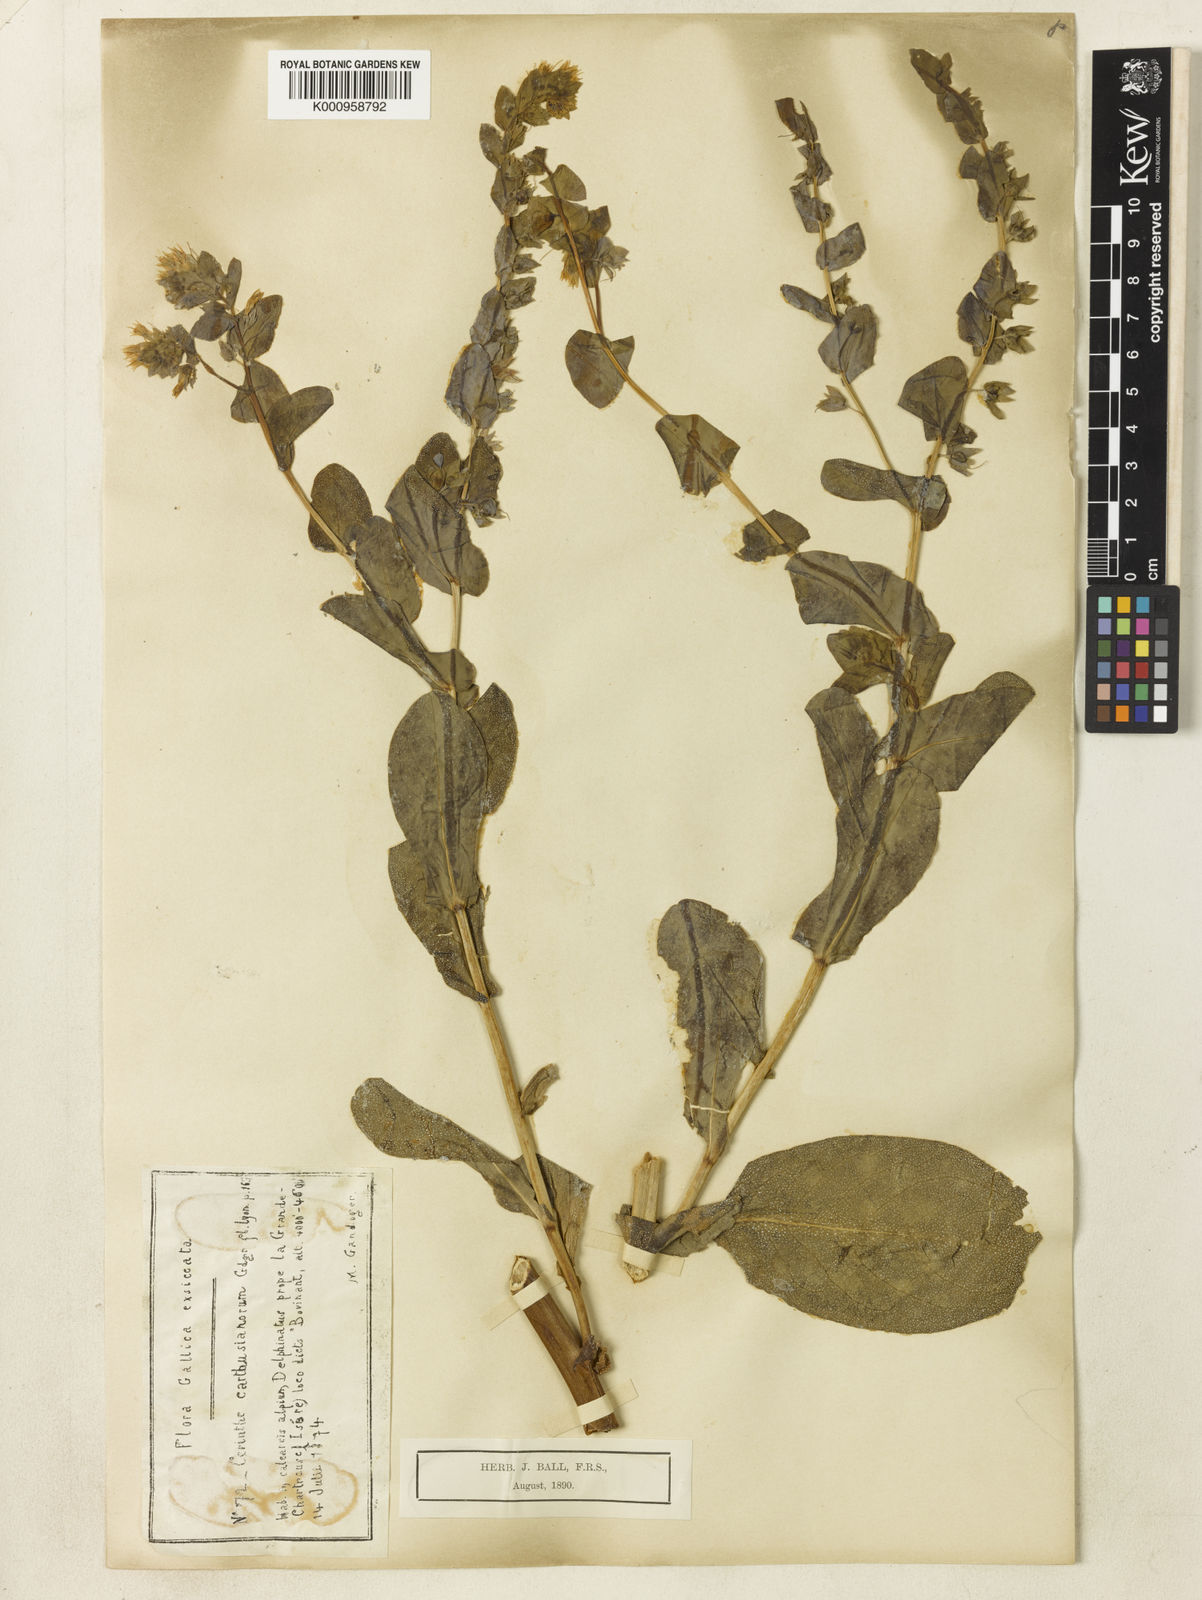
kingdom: Plantae
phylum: Tracheophyta
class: Magnoliopsida
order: Boraginales
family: Boraginaceae
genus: Cerinthe
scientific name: Cerinthe minor
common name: Lesser honeywort
